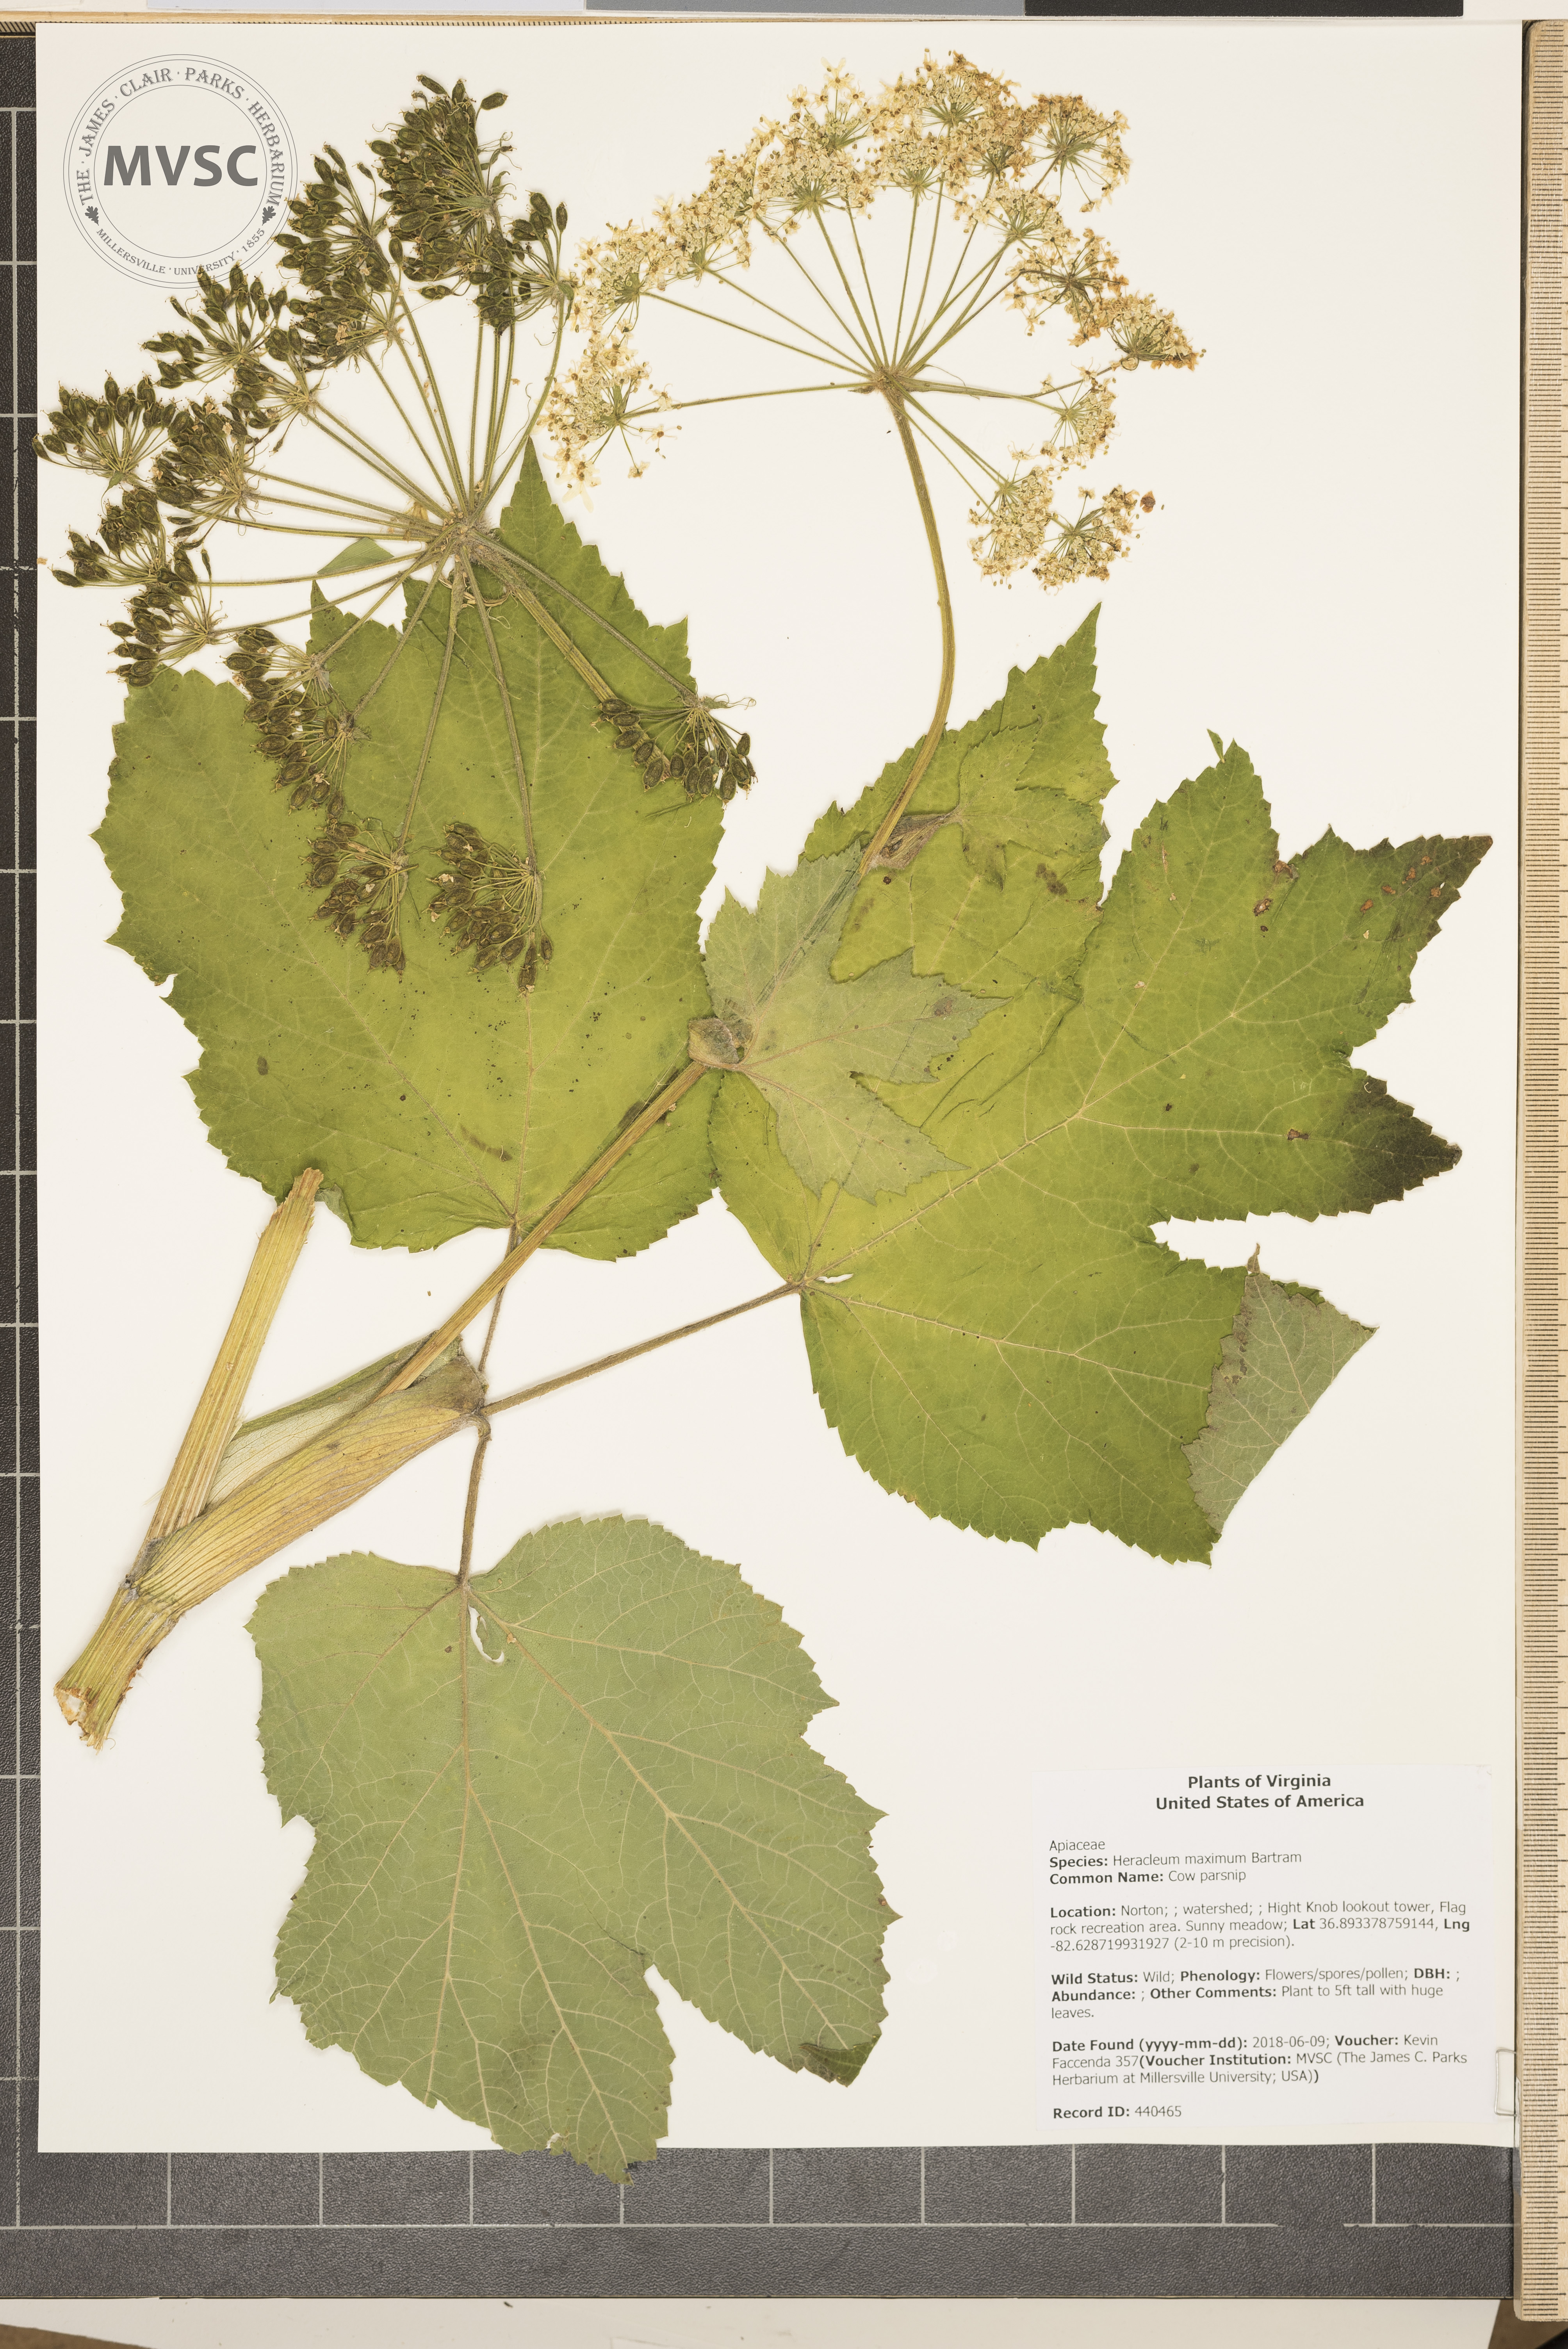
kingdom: Plantae
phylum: Tracheophyta
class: Magnoliopsida
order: Apiales
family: Apiaceae
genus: Heracleum
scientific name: Heracleum maximum
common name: Cow parsnip
